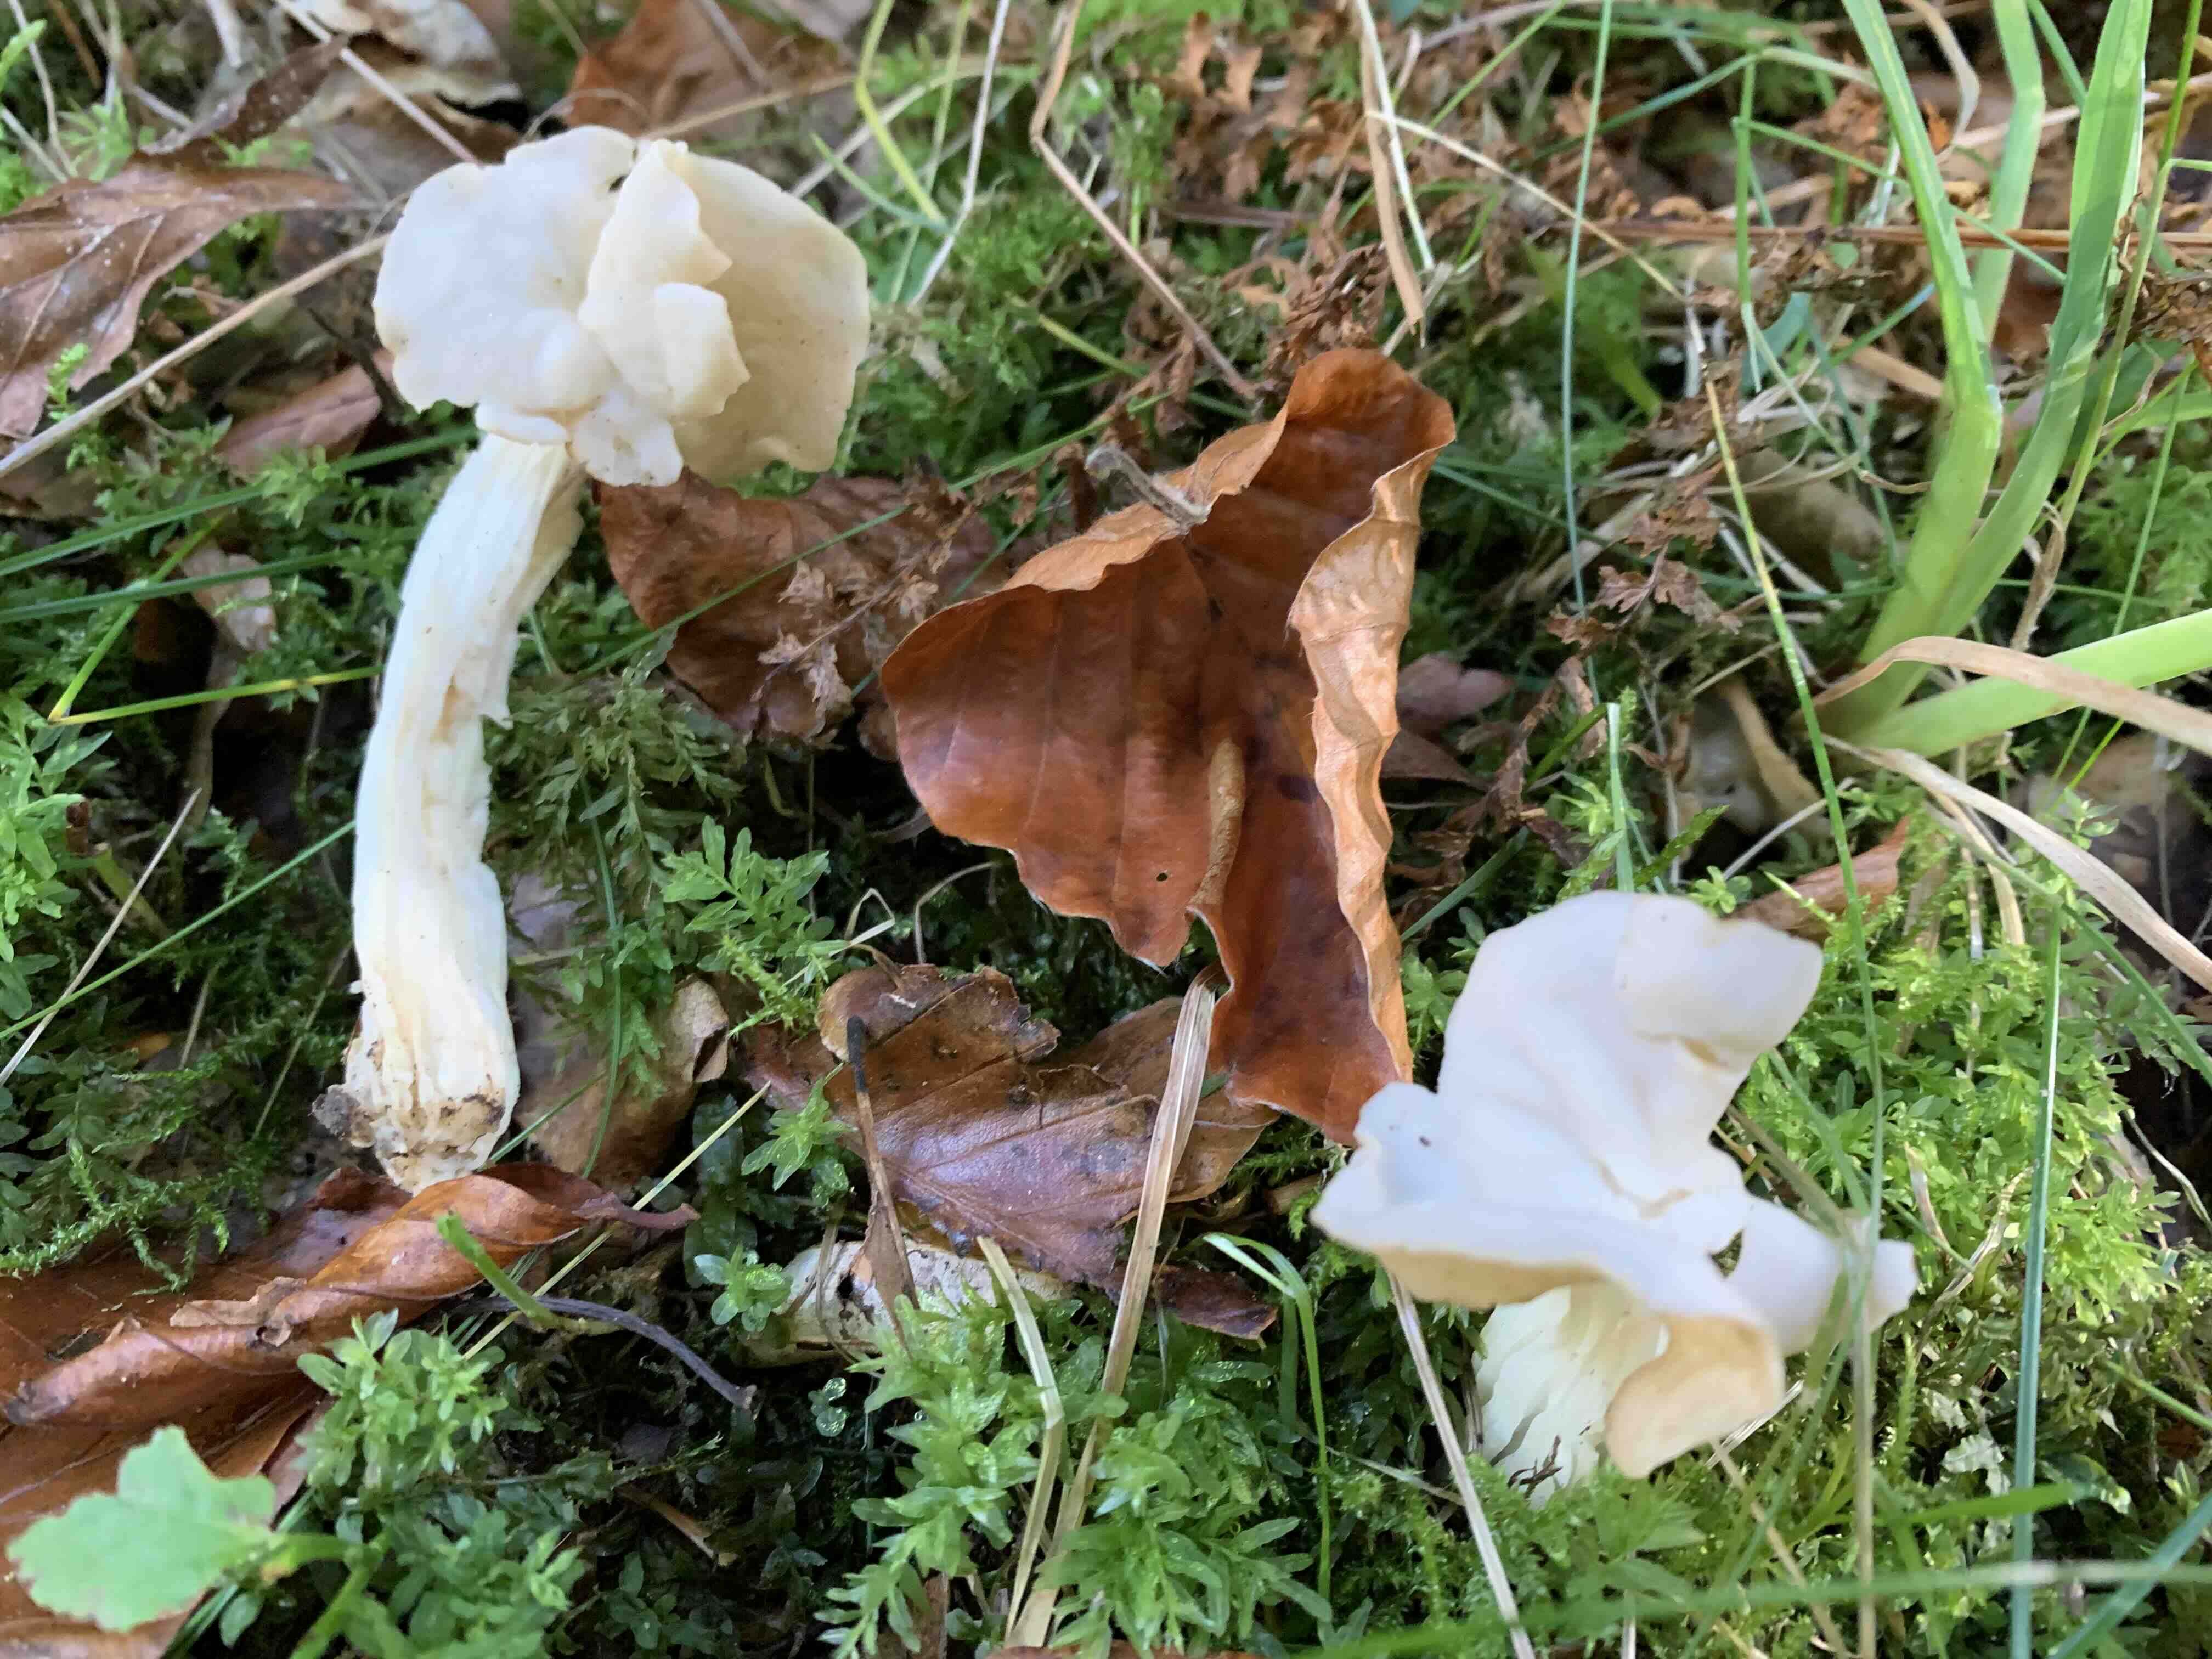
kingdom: Fungi
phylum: Ascomycota
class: Pezizomycetes
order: Pezizales
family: Helvellaceae
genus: Helvella
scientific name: Helvella crispa
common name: kruset foldhat
